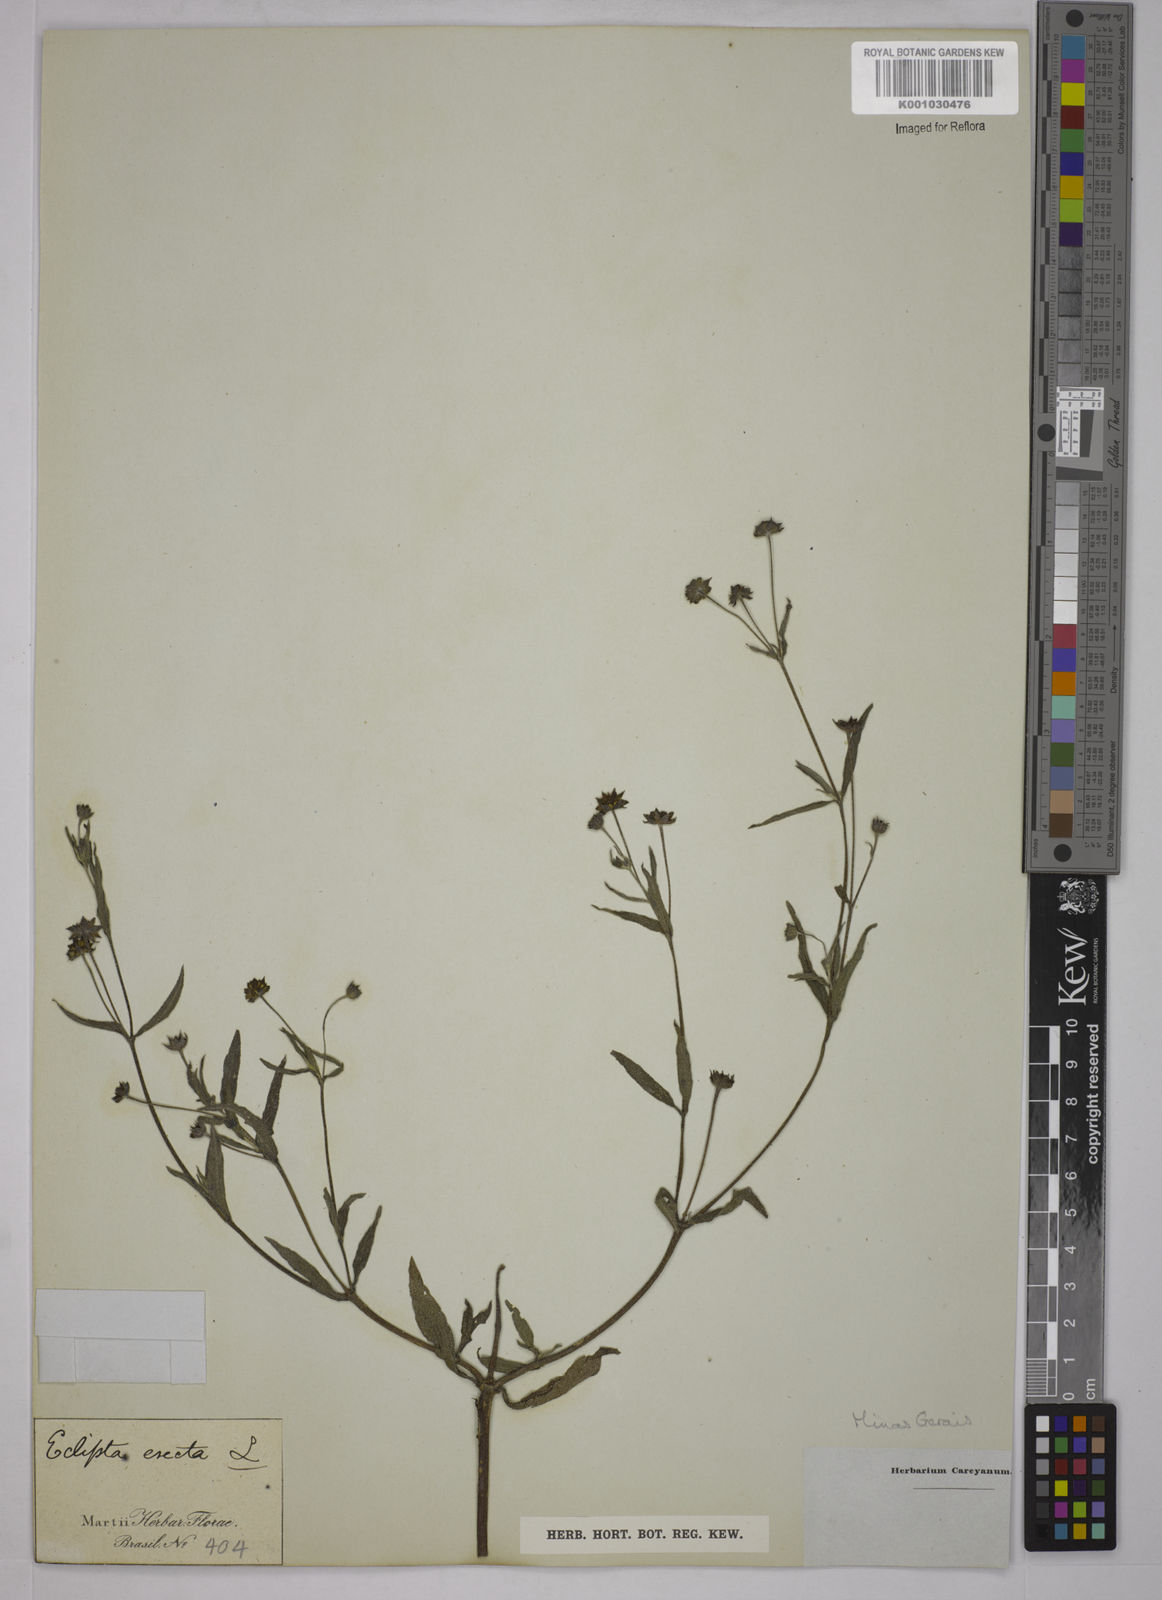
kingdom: Plantae
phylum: Tracheophyta
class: Magnoliopsida
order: Asterales
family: Asteraceae
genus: Eclipta
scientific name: Eclipta prostrata
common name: False daisy
